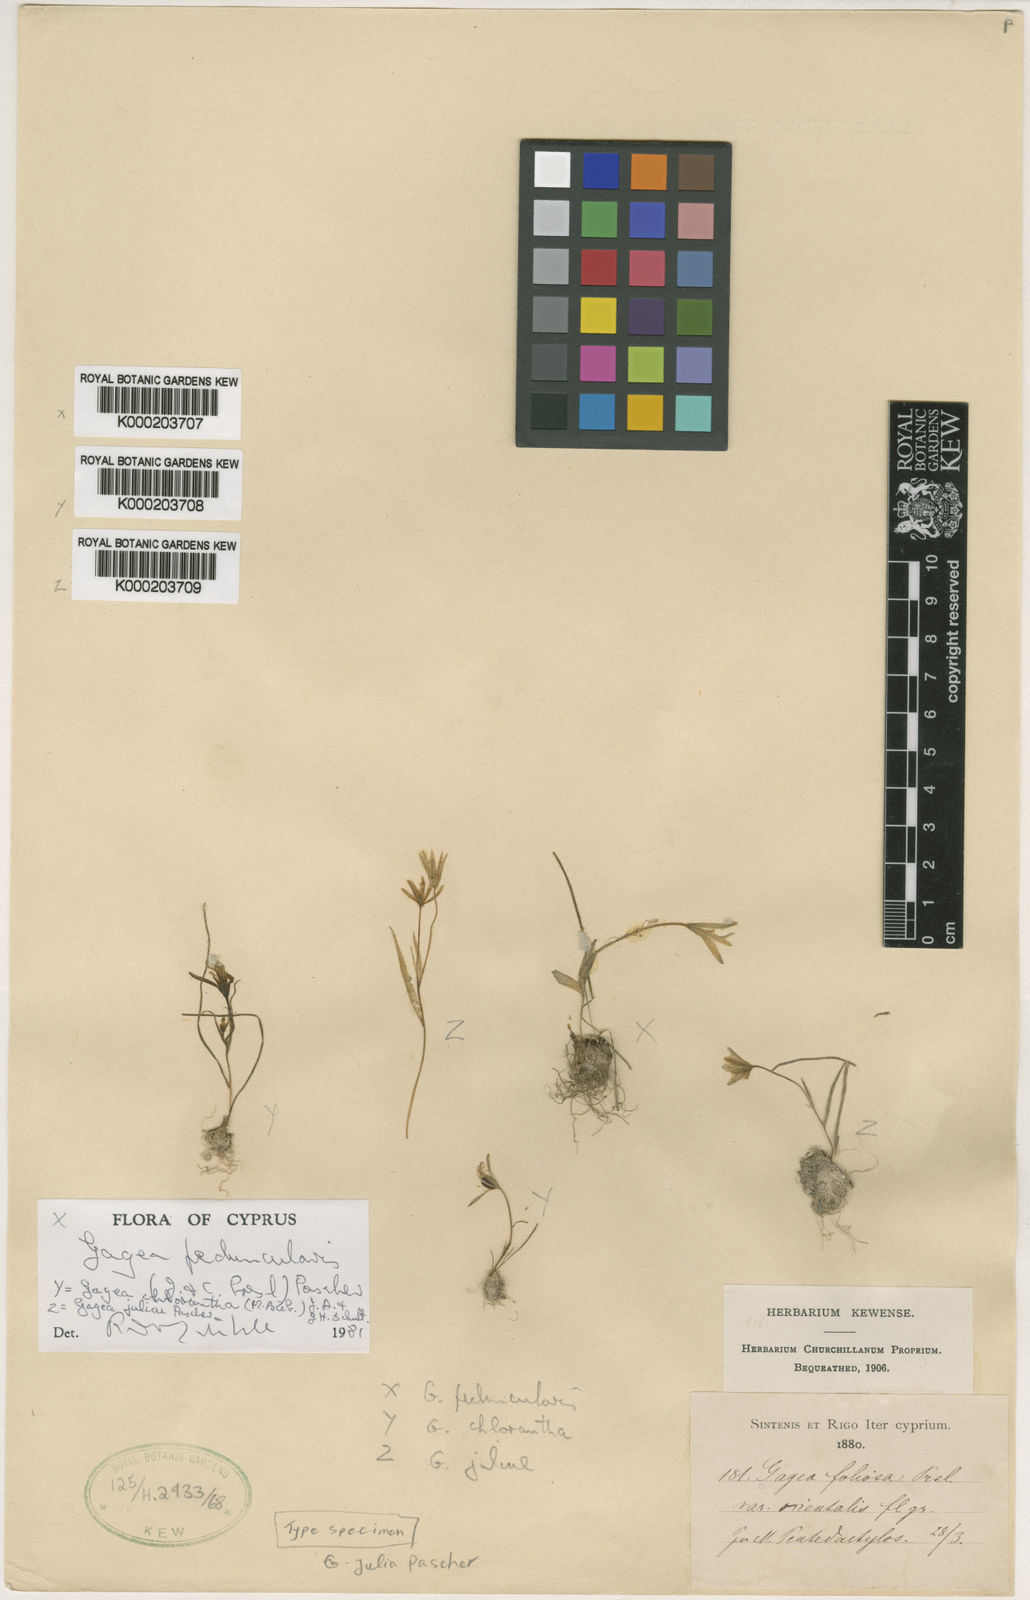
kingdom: Plantae
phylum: Tracheophyta
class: Liliopsida
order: Liliales
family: Liliaceae
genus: Gagea
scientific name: Gagea juliae
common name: Julia’s gagea
